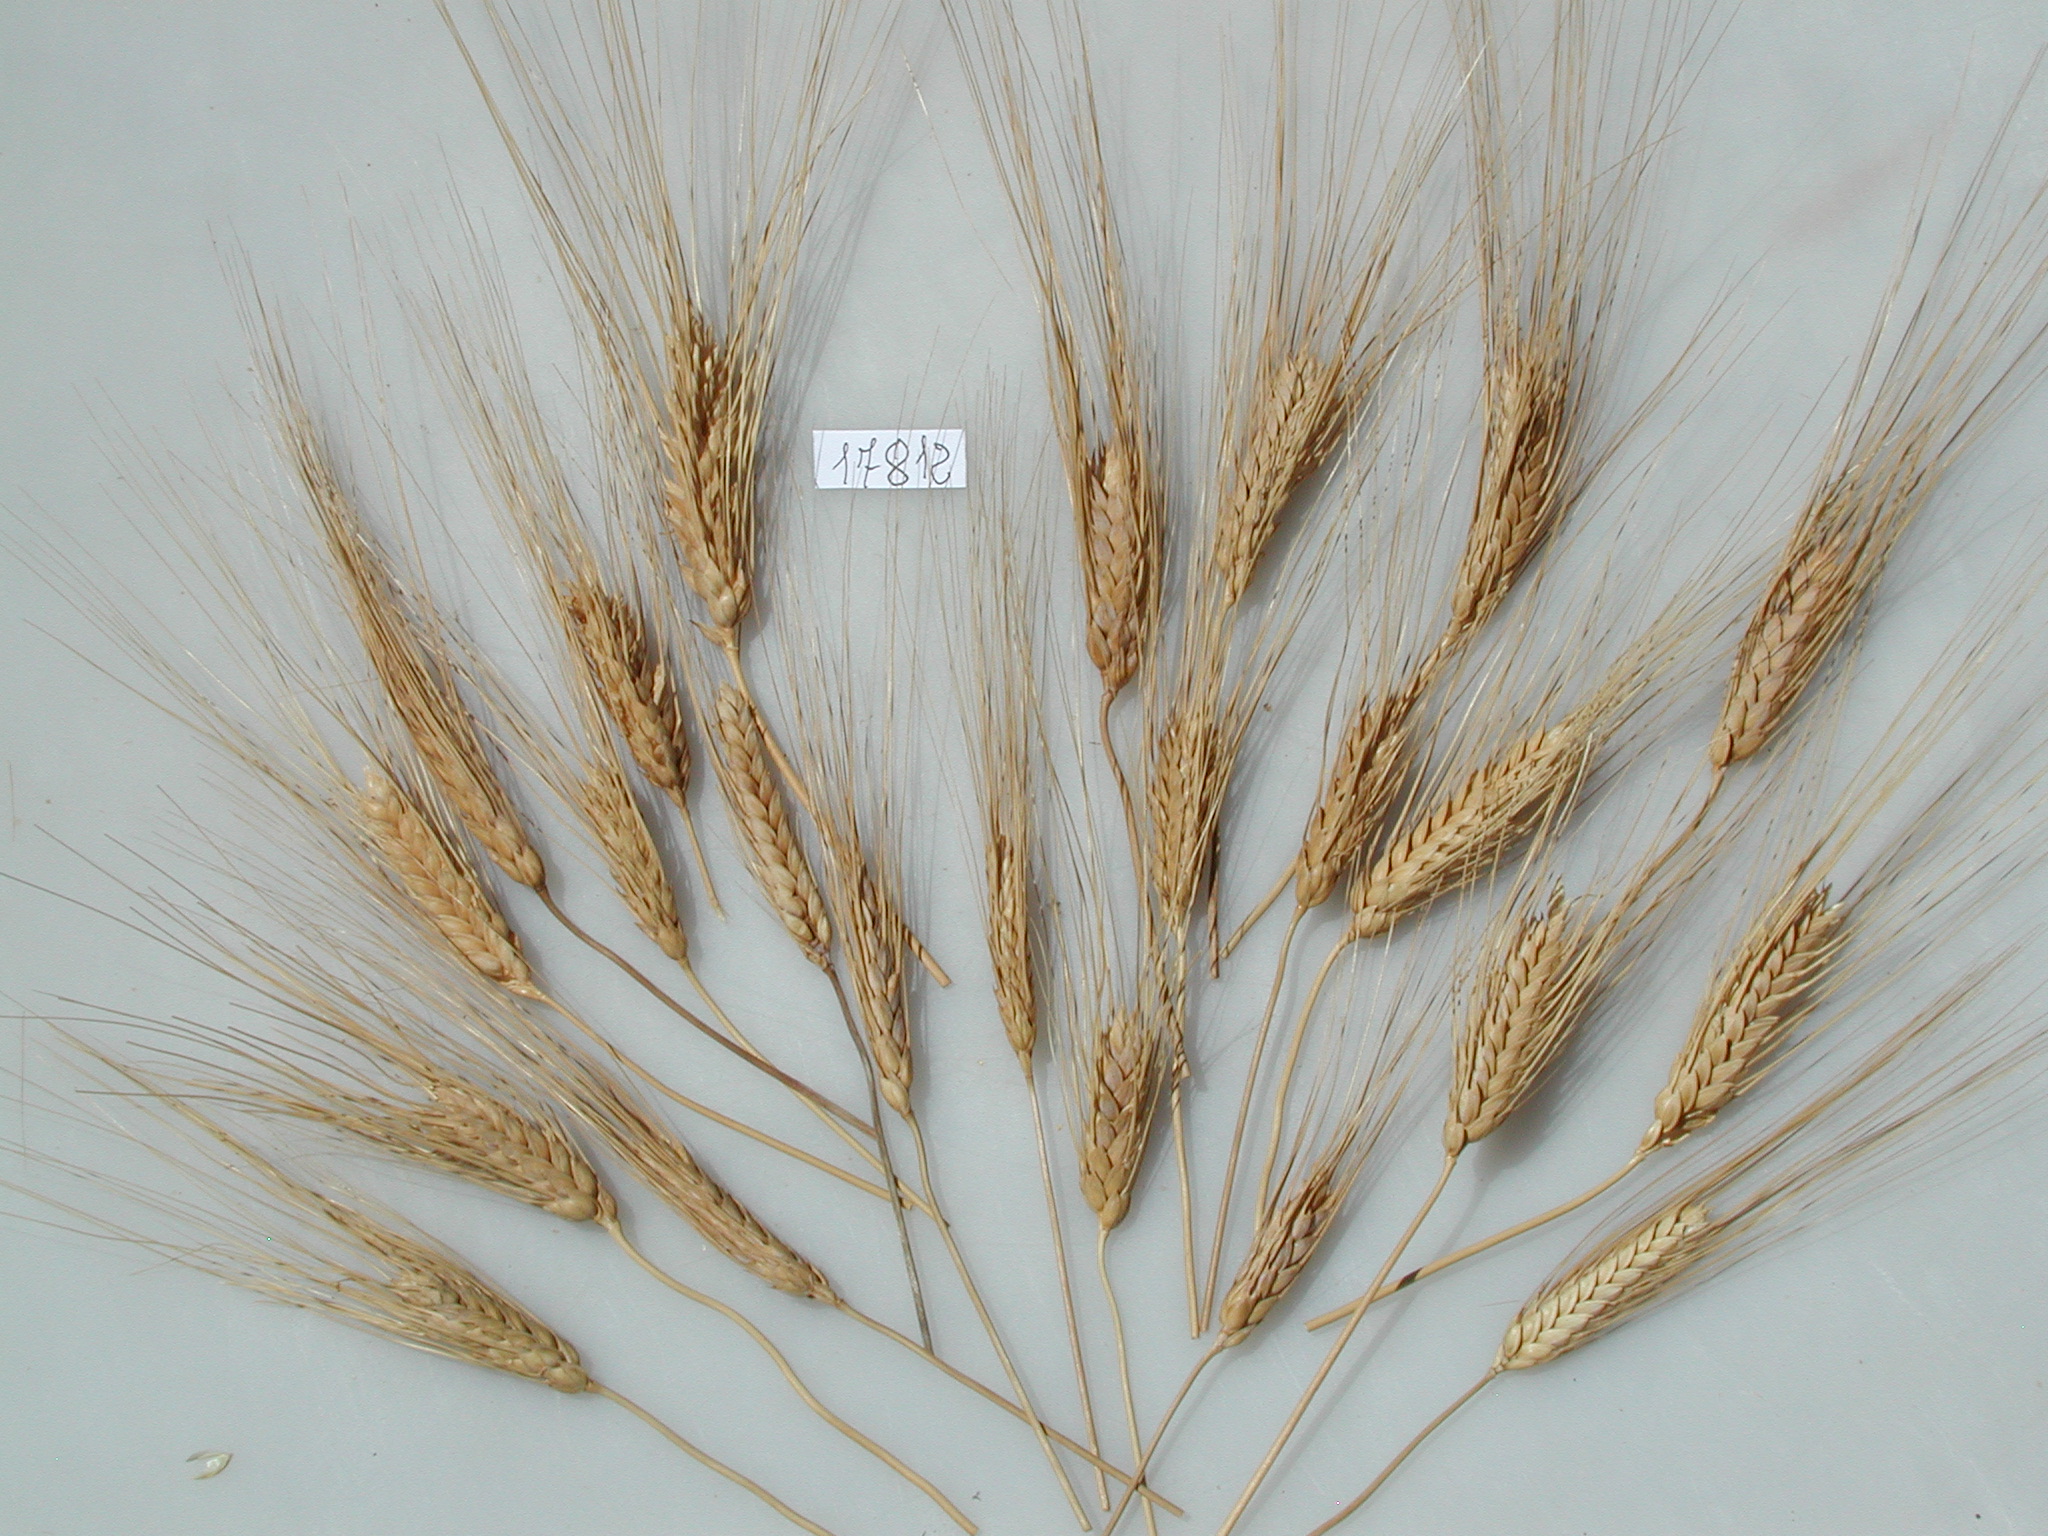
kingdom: Plantae
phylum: Tracheophyta
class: Liliopsida
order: Poales
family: Poaceae
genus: Triticum
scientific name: Triticum turgidum
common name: Wheat
